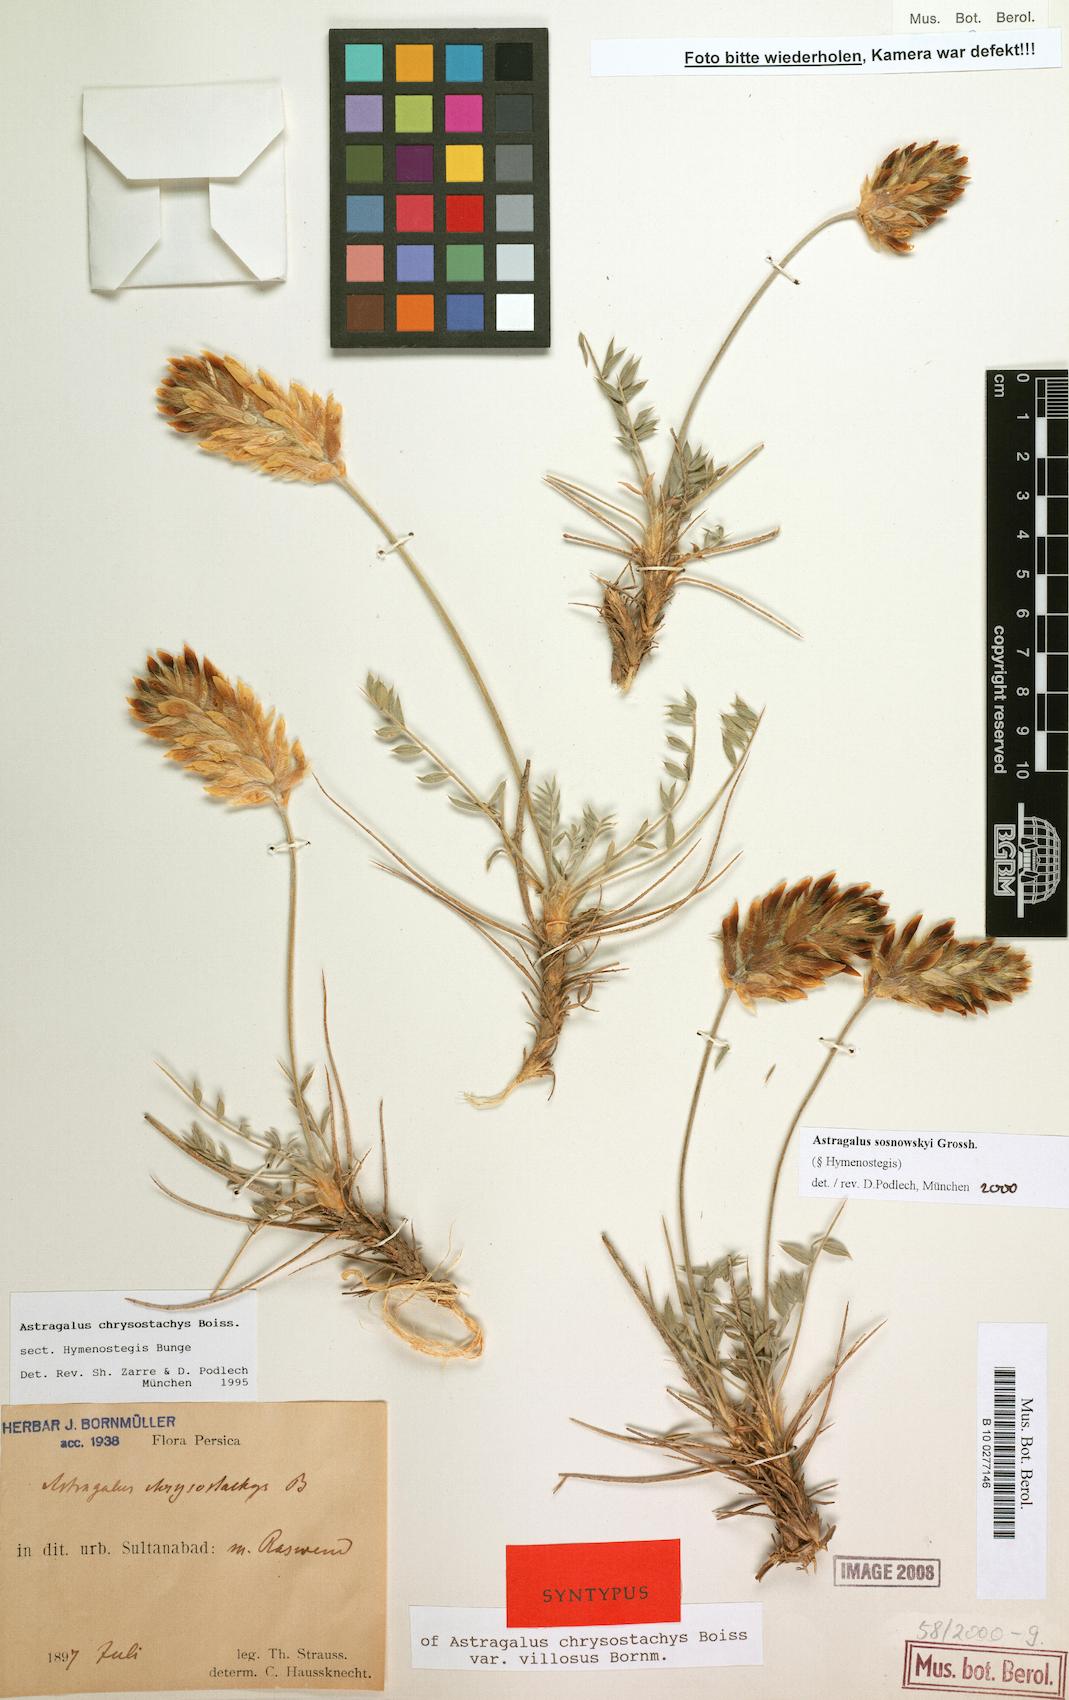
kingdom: Plantae
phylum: Tracheophyta
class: Magnoliopsida
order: Fabales
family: Fabaceae
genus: Astragalus
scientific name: Astragalus sosnowskyi
